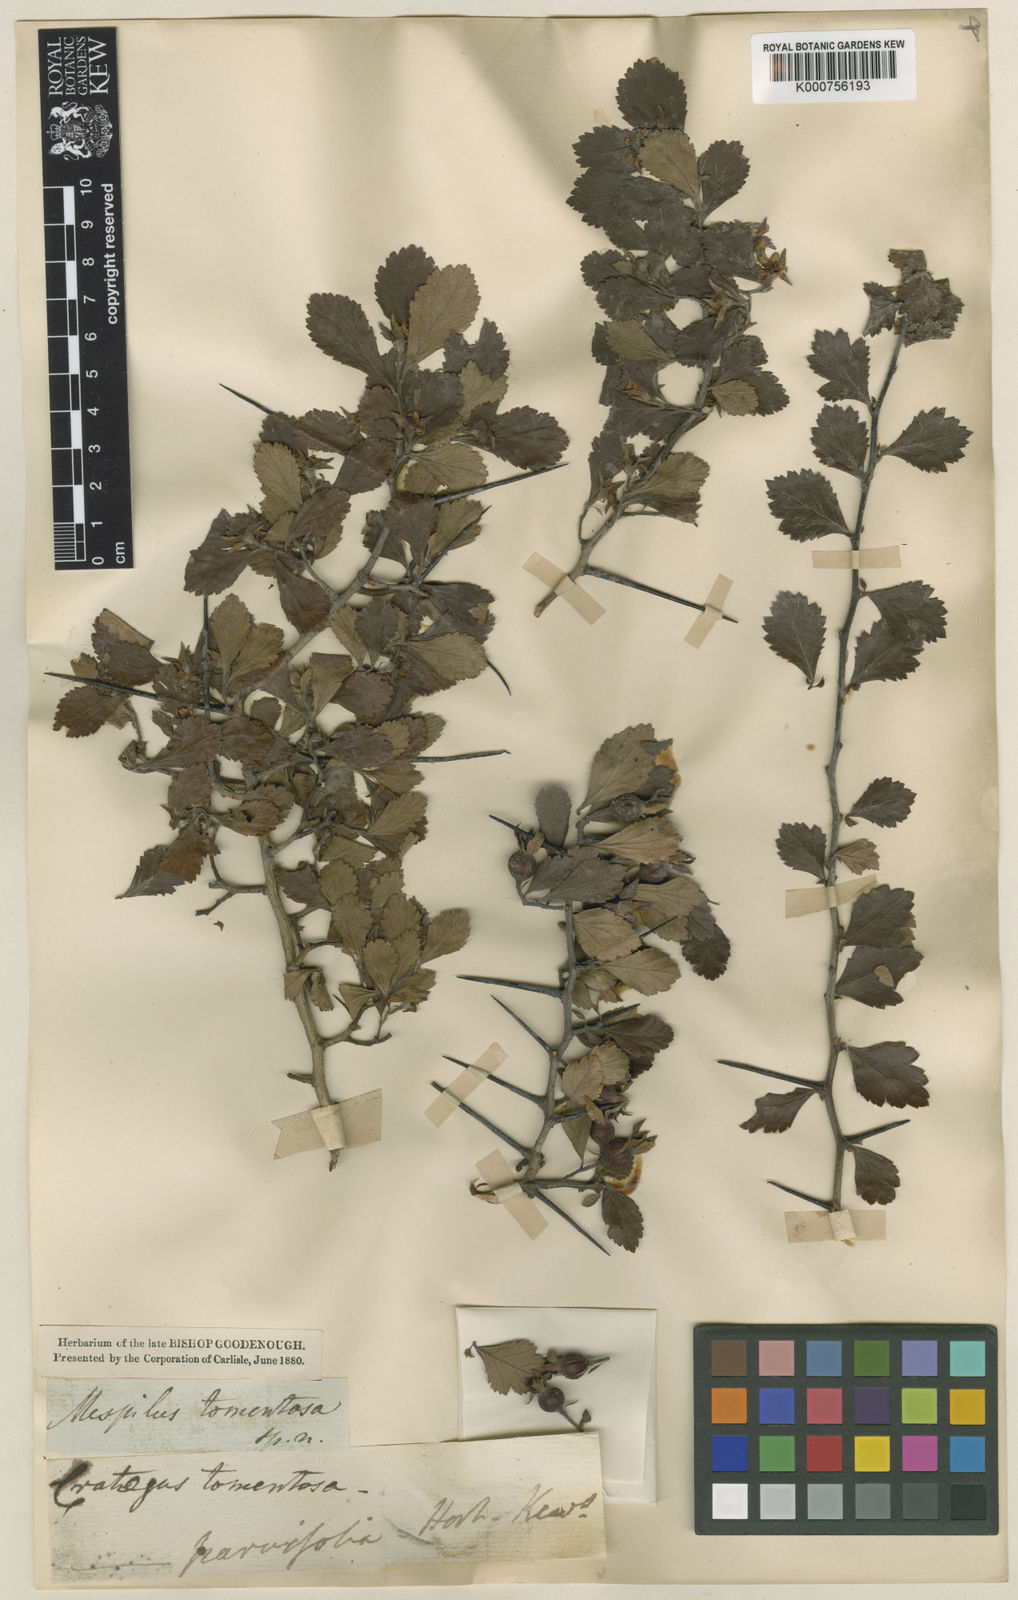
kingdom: Plantae
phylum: Tracheophyta
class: Magnoliopsida
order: Rosales
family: Rosaceae
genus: Crataegus
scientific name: Crataegus uniflora
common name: One-flower hawthorn
